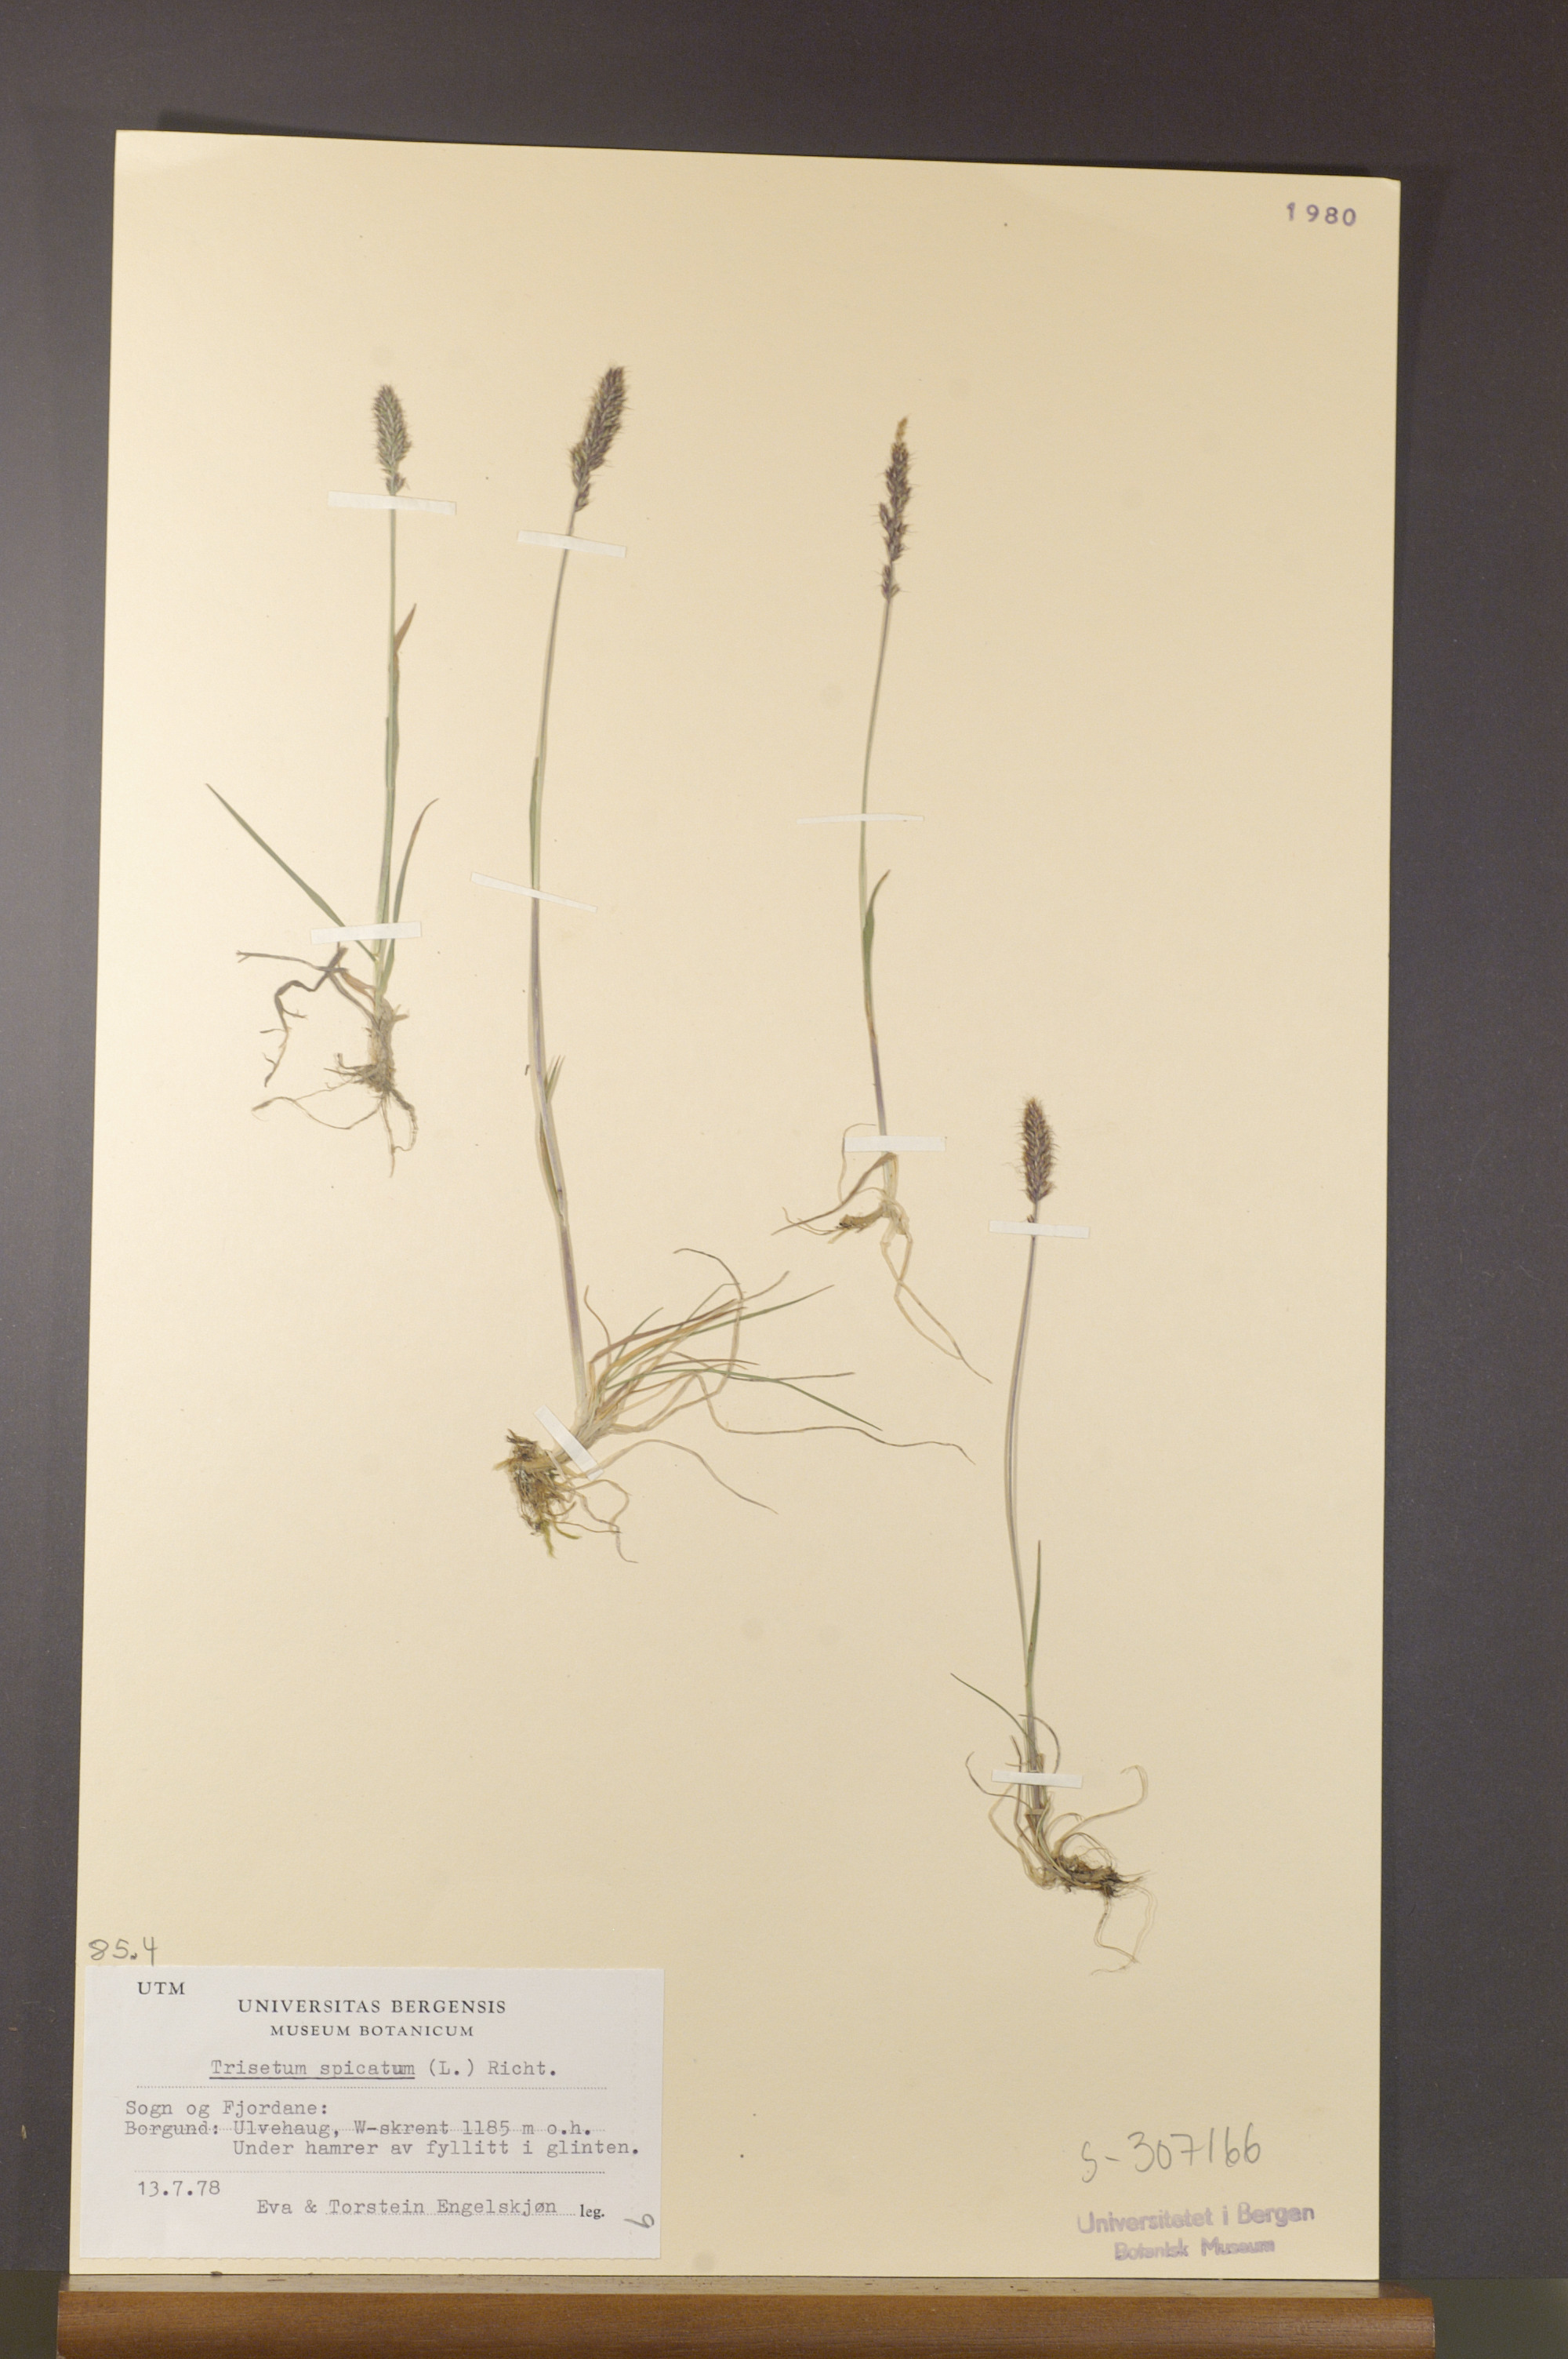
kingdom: Plantae
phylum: Tracheophyta
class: Liliopsida
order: Poales
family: Poaceae
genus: Koeleria
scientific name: Koeleria spicata
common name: Mountain trisetum
